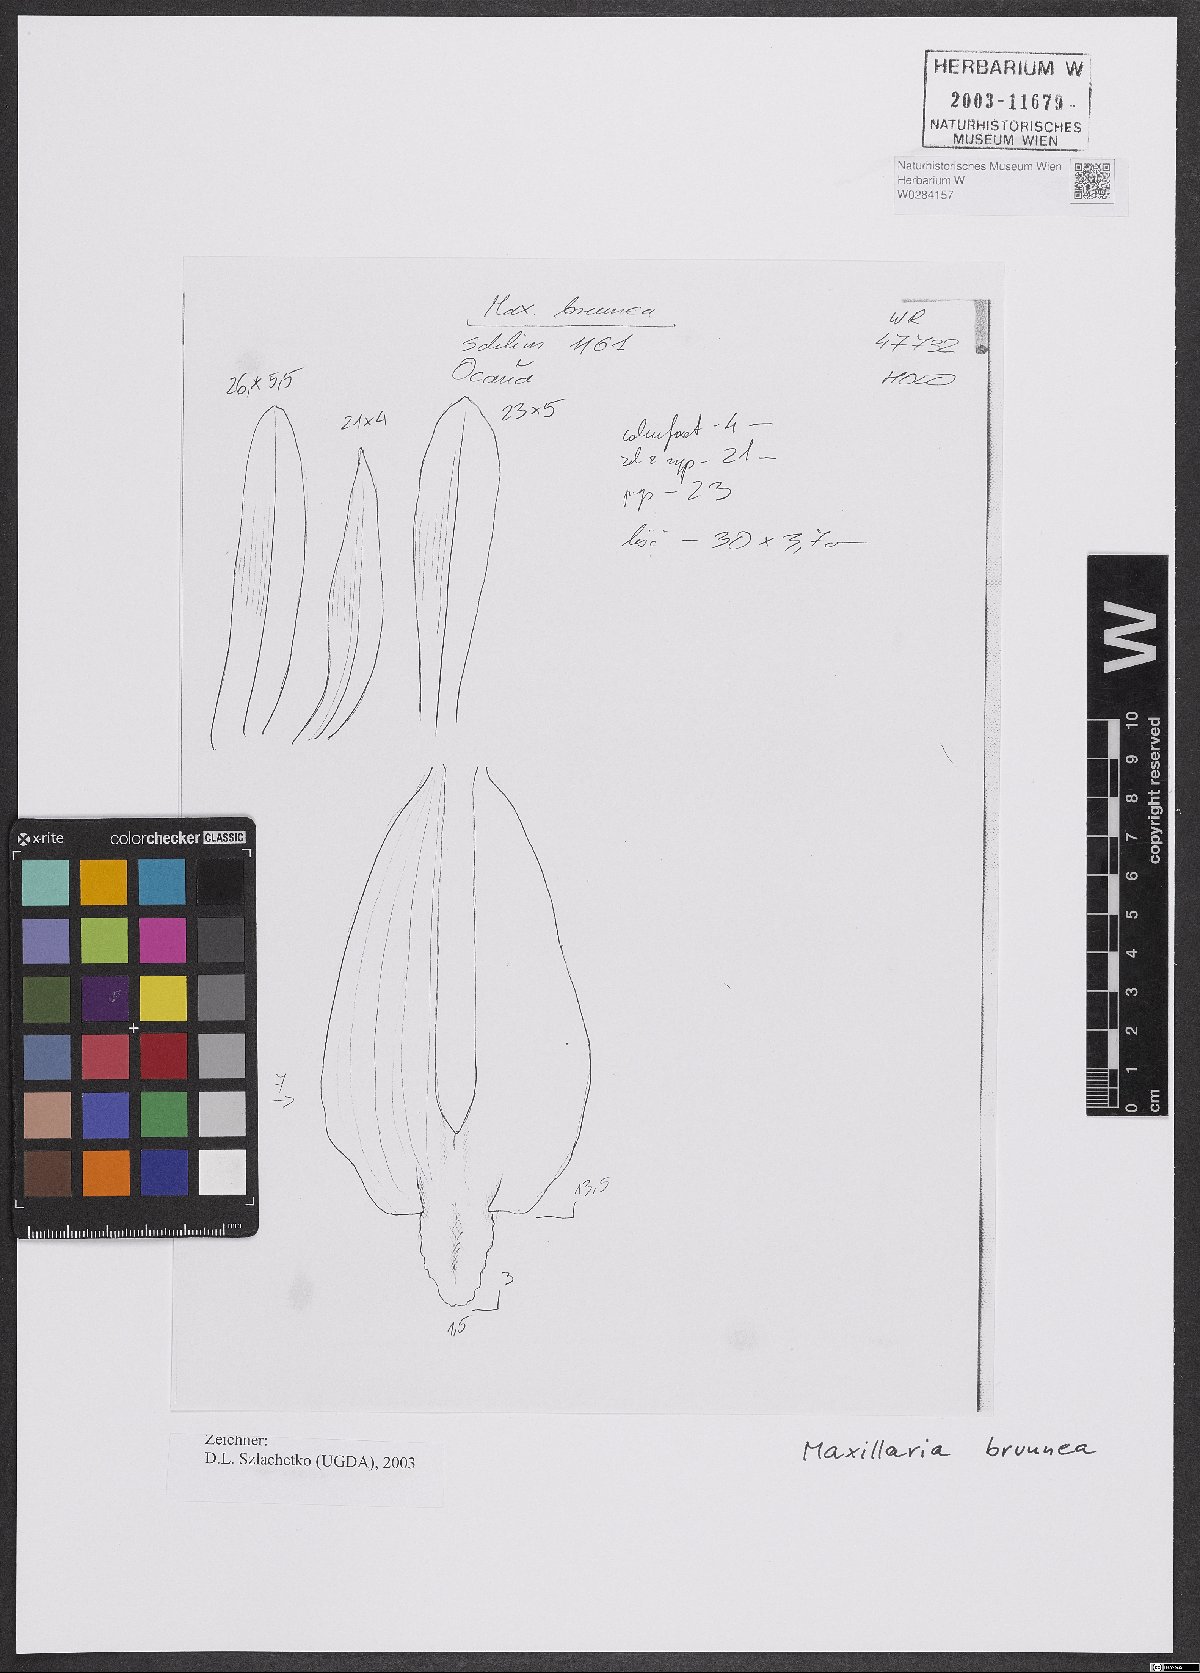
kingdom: Plantae
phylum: Tracheophyta
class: Liliopsida
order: Asparagales
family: Orchidaceae
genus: Maxillaria
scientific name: Maxillaria porrecta
